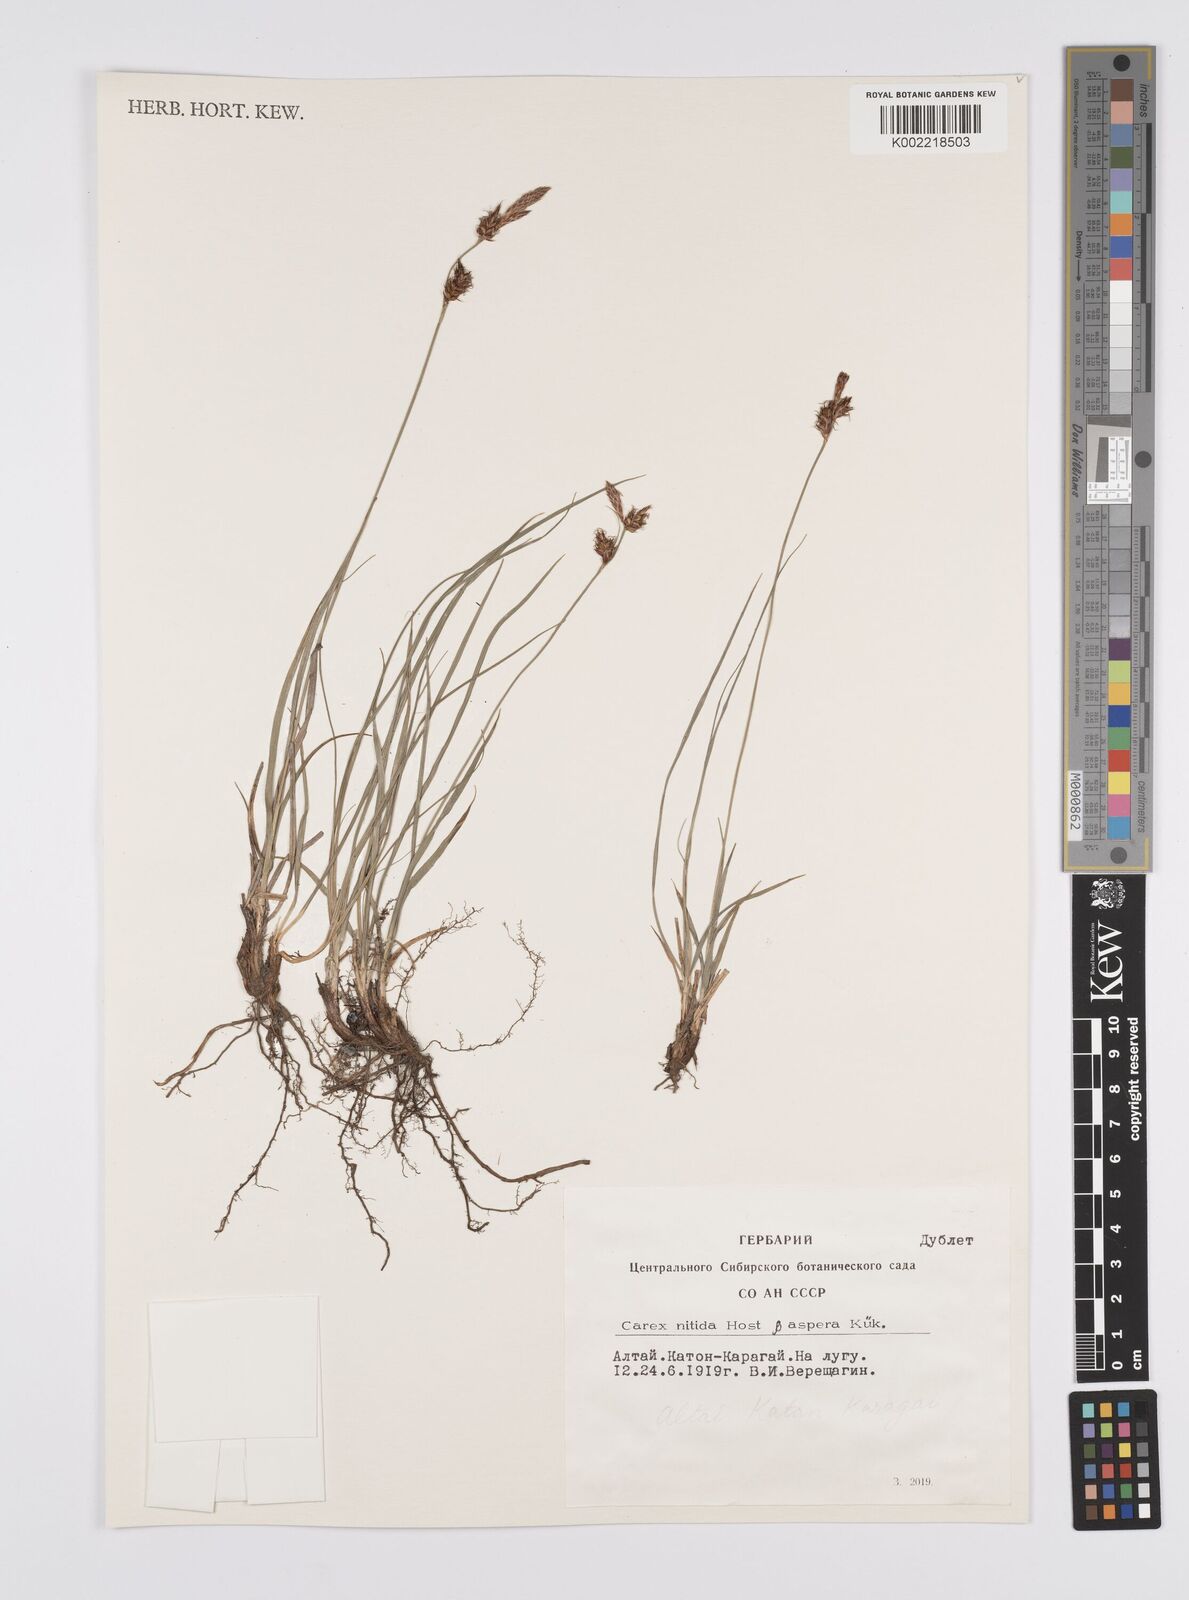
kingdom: Plantae
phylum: Tracheophyta
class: Liliopsida
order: Poales
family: Cyperaceae
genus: Carex
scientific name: Carex liparocarpos
